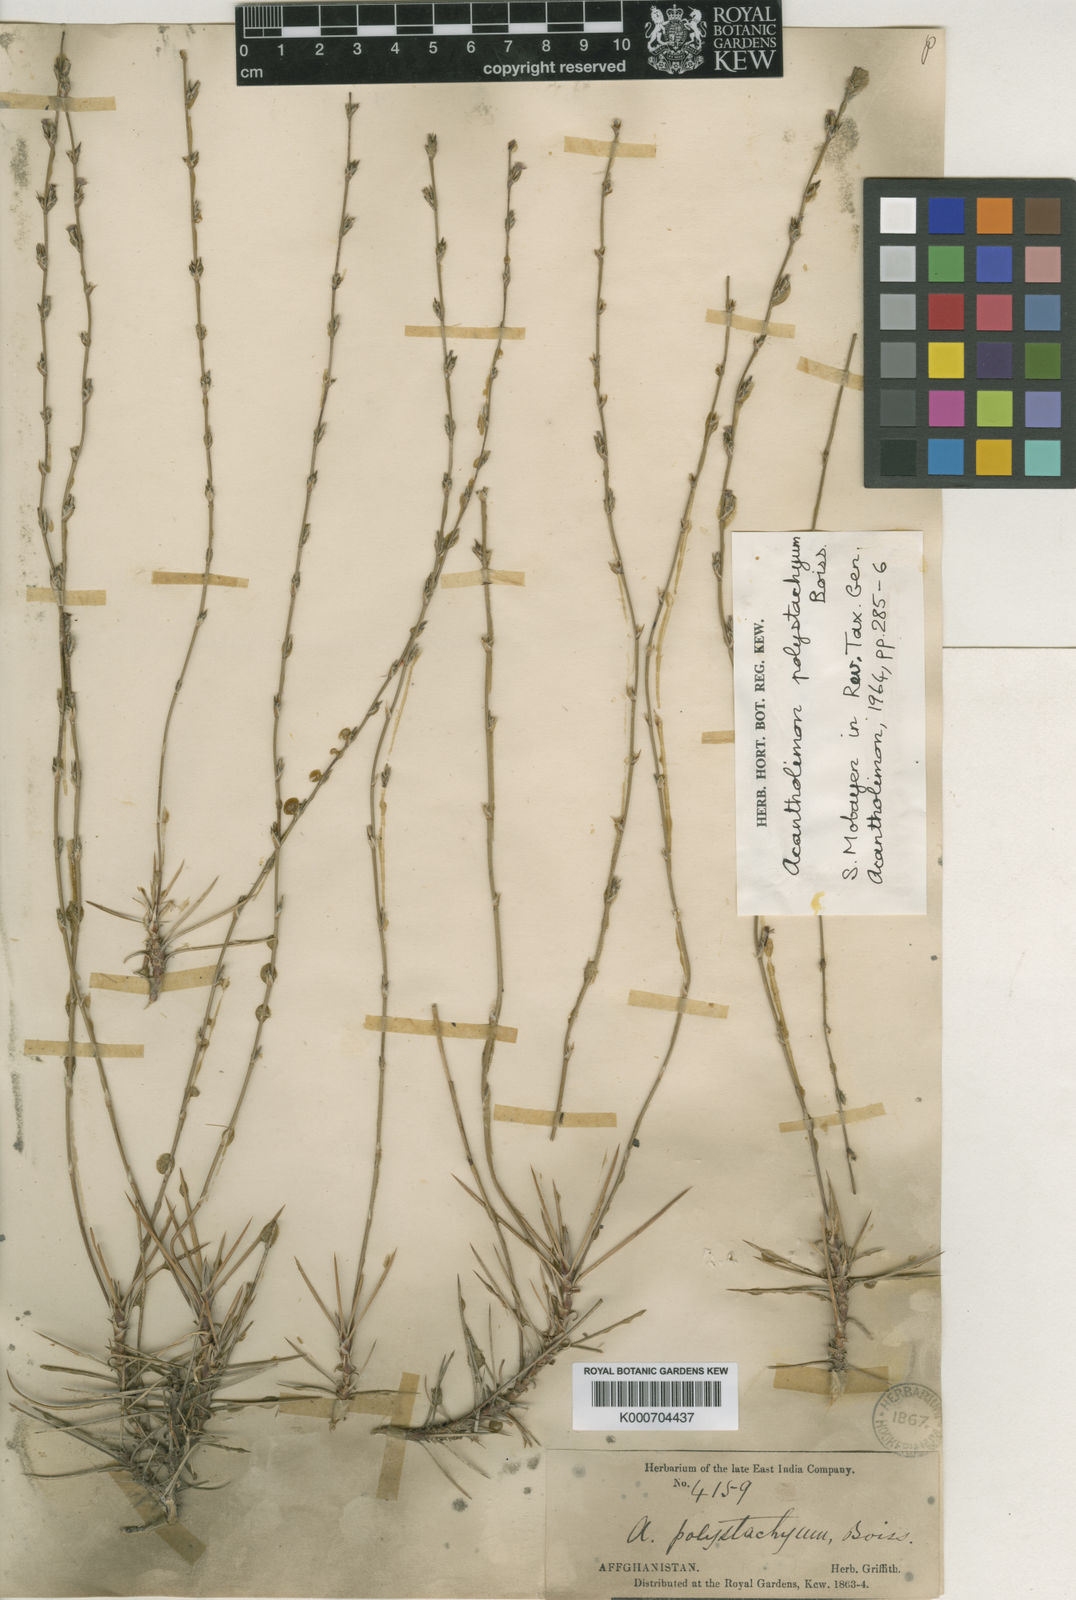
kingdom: Plantae
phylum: Tracheophyta
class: Magnoliopsida
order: Caryophyllales
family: Plumbaginaceae
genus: Acantholimon
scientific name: Acantholimon polystachyum
